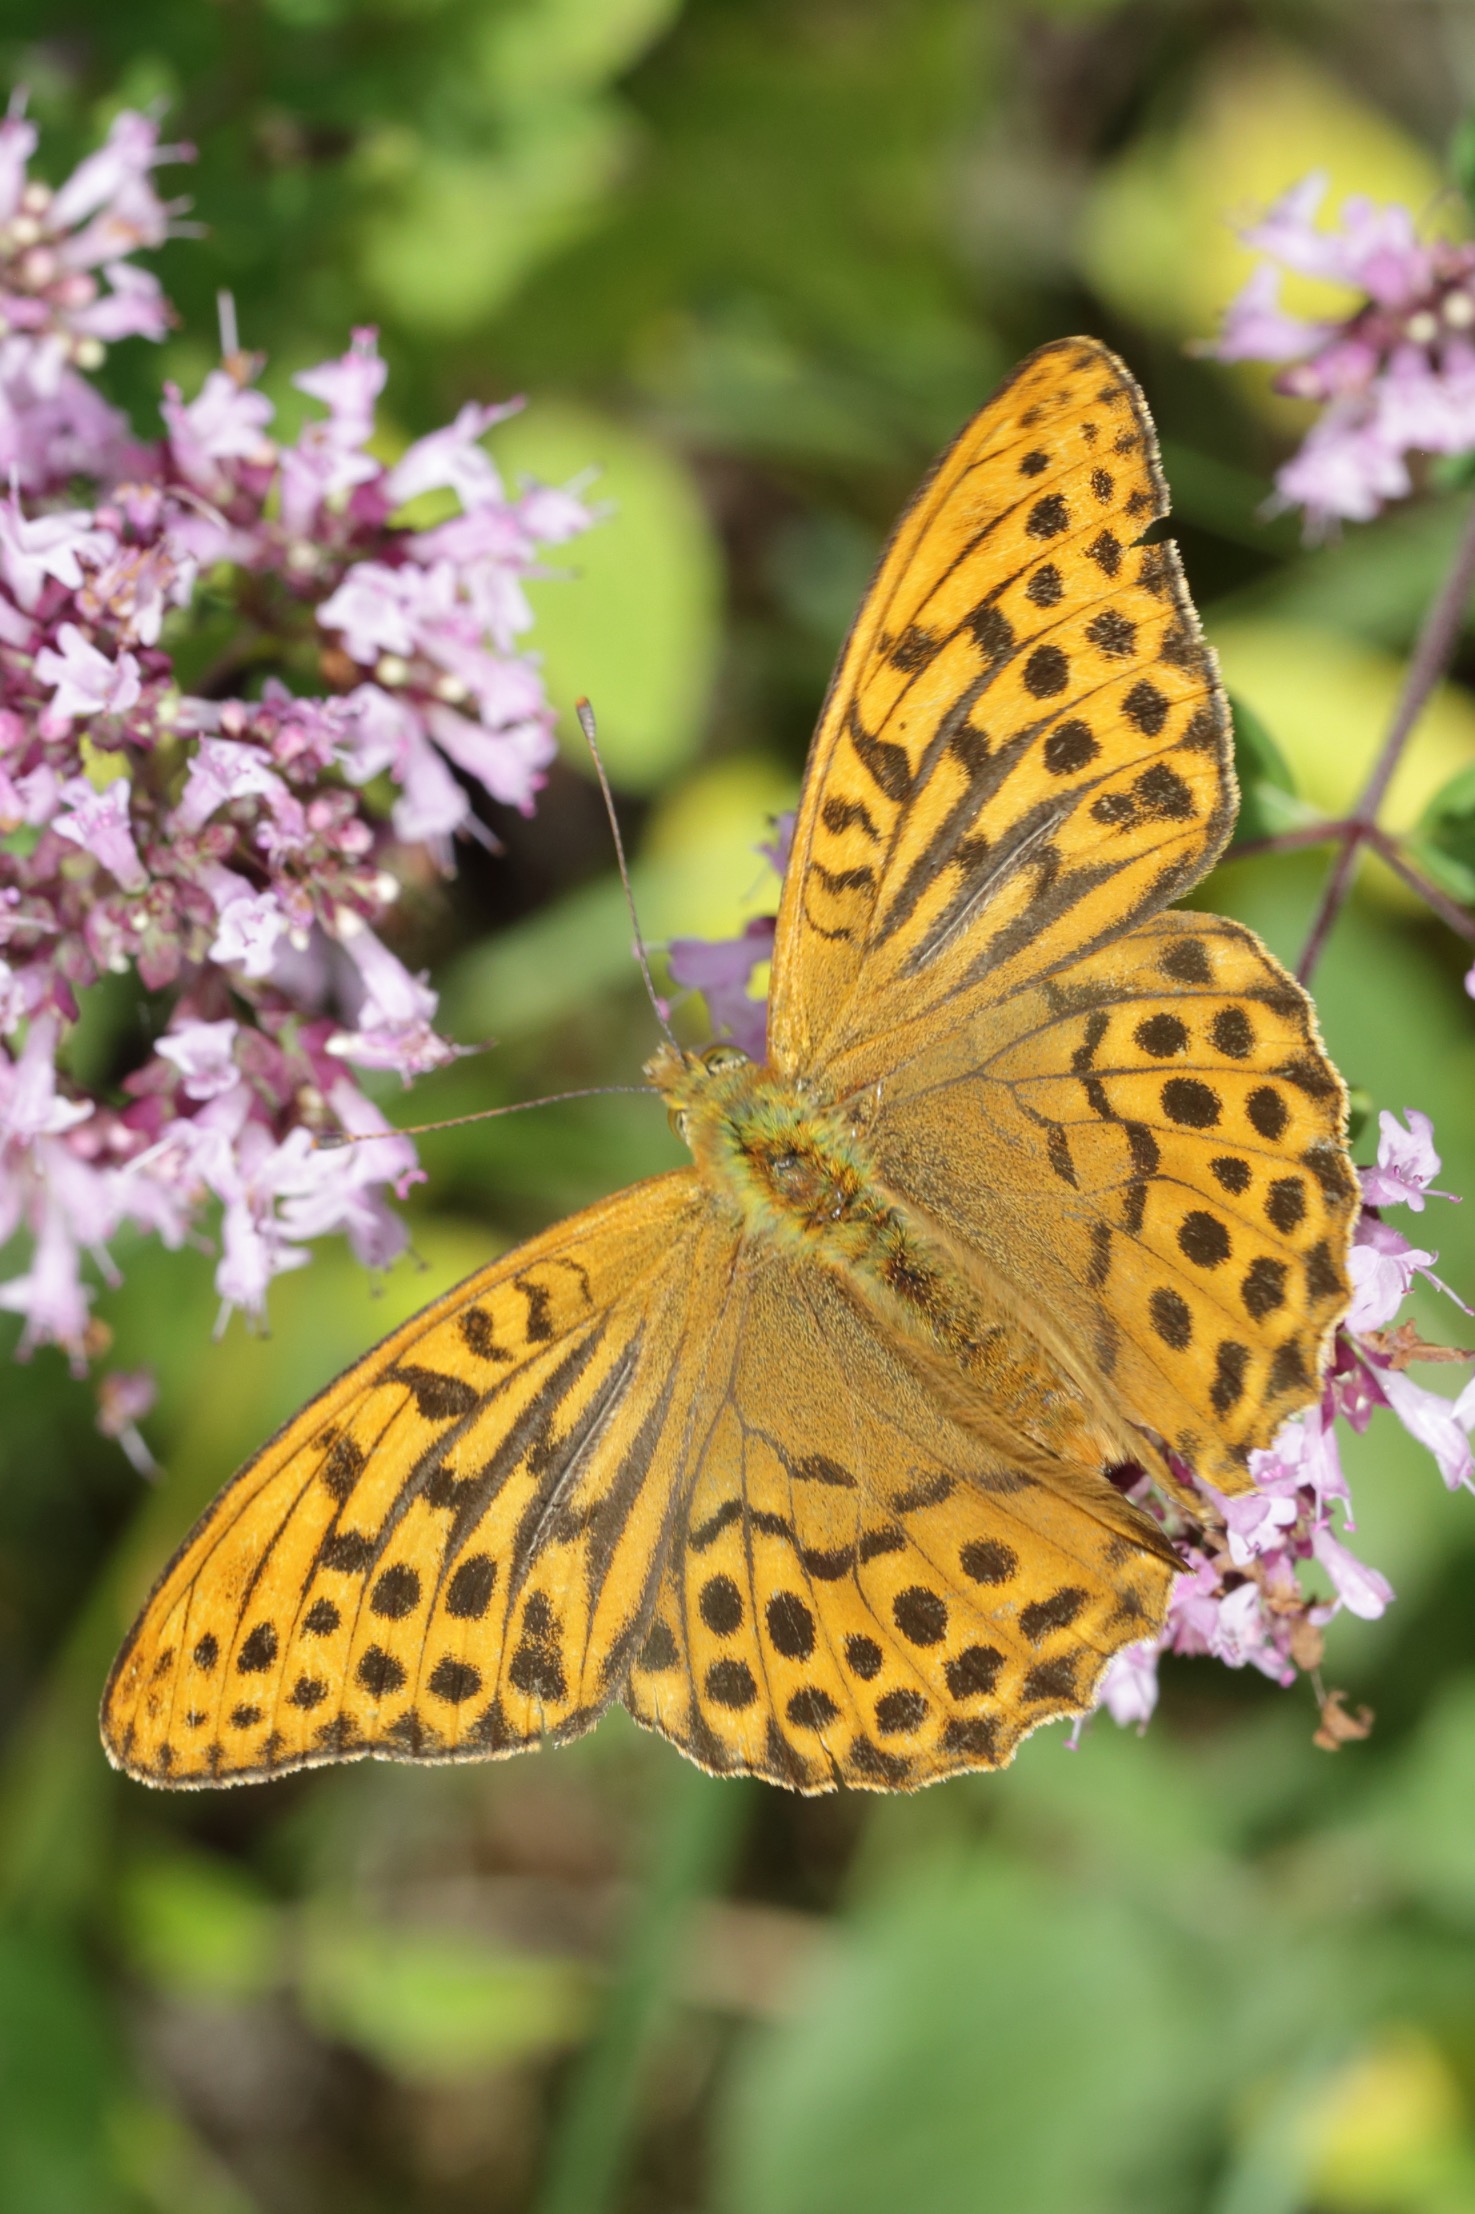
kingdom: Animalia
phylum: Arthropoda
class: Insecta
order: Lepidoptera
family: Nymphalidae
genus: Argynnis
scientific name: Argynnis paphia
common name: Kejserkåbe
